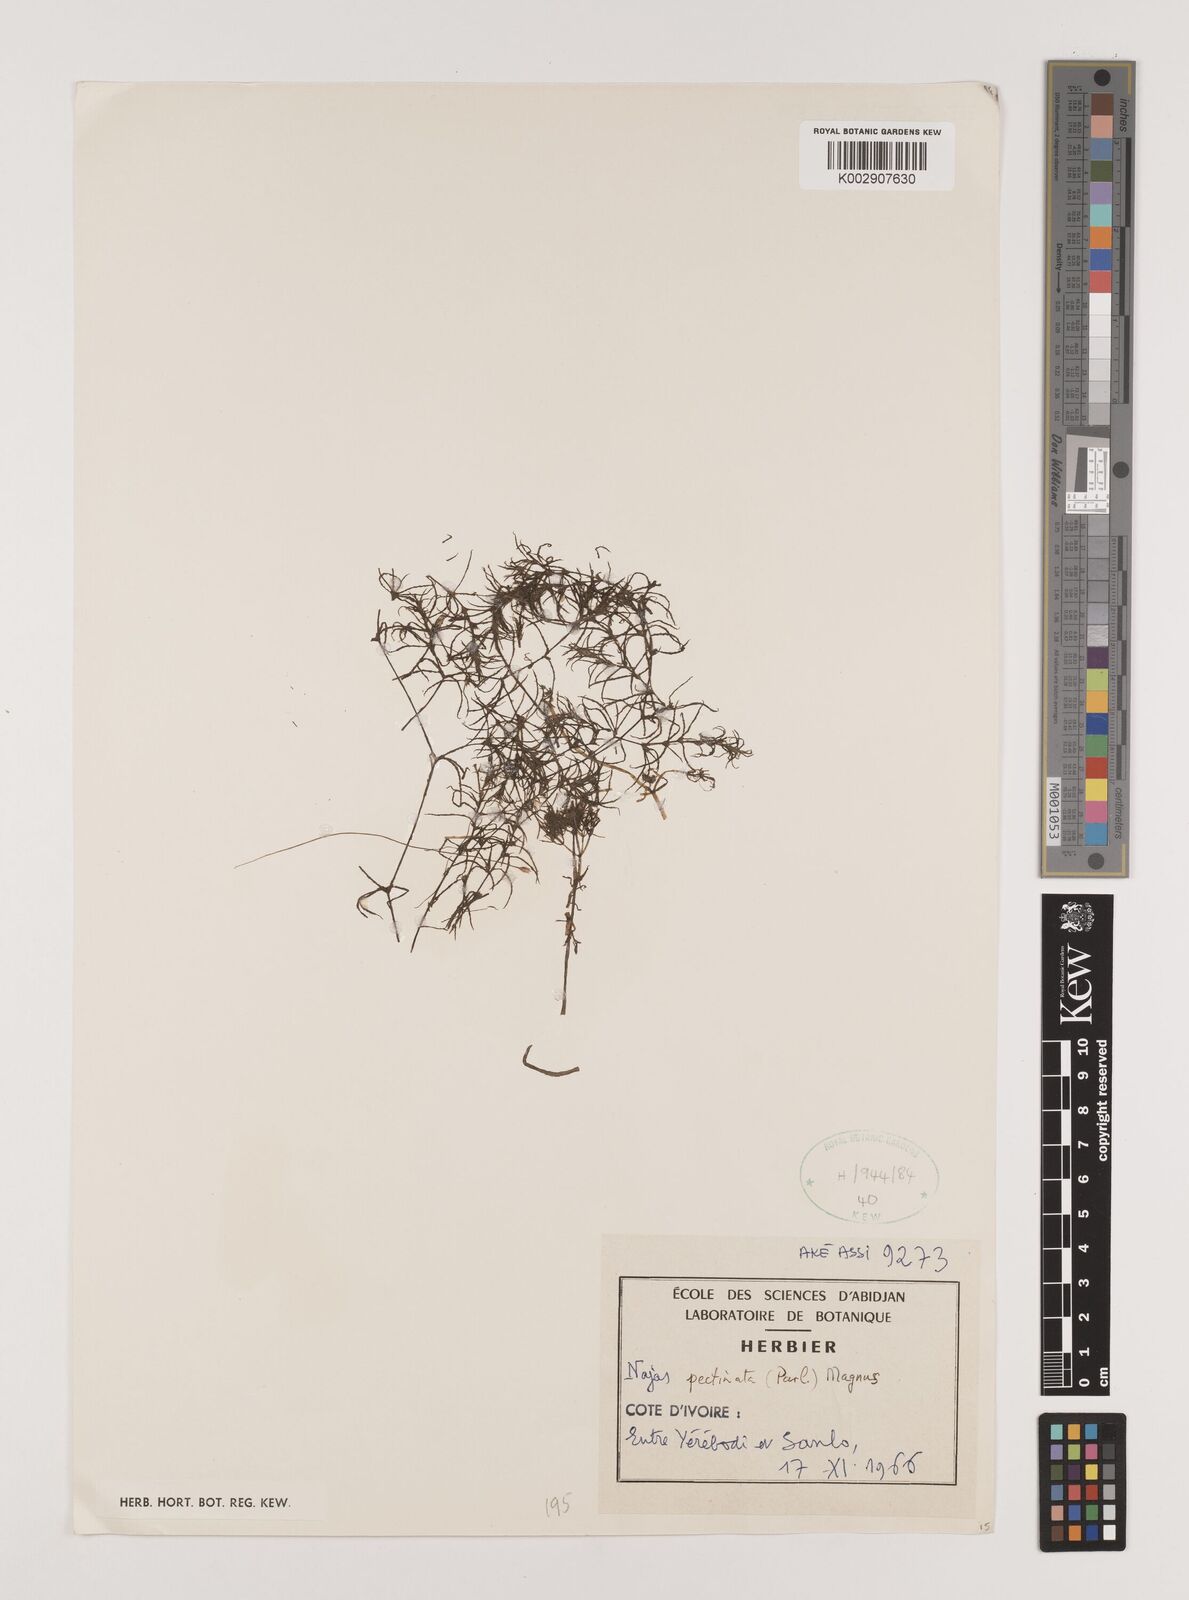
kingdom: Plantae
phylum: Tracheophyta
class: Liliopsida
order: Alismatales
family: Hydrocharitaceae
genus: Najas
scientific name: Najas pectinata
